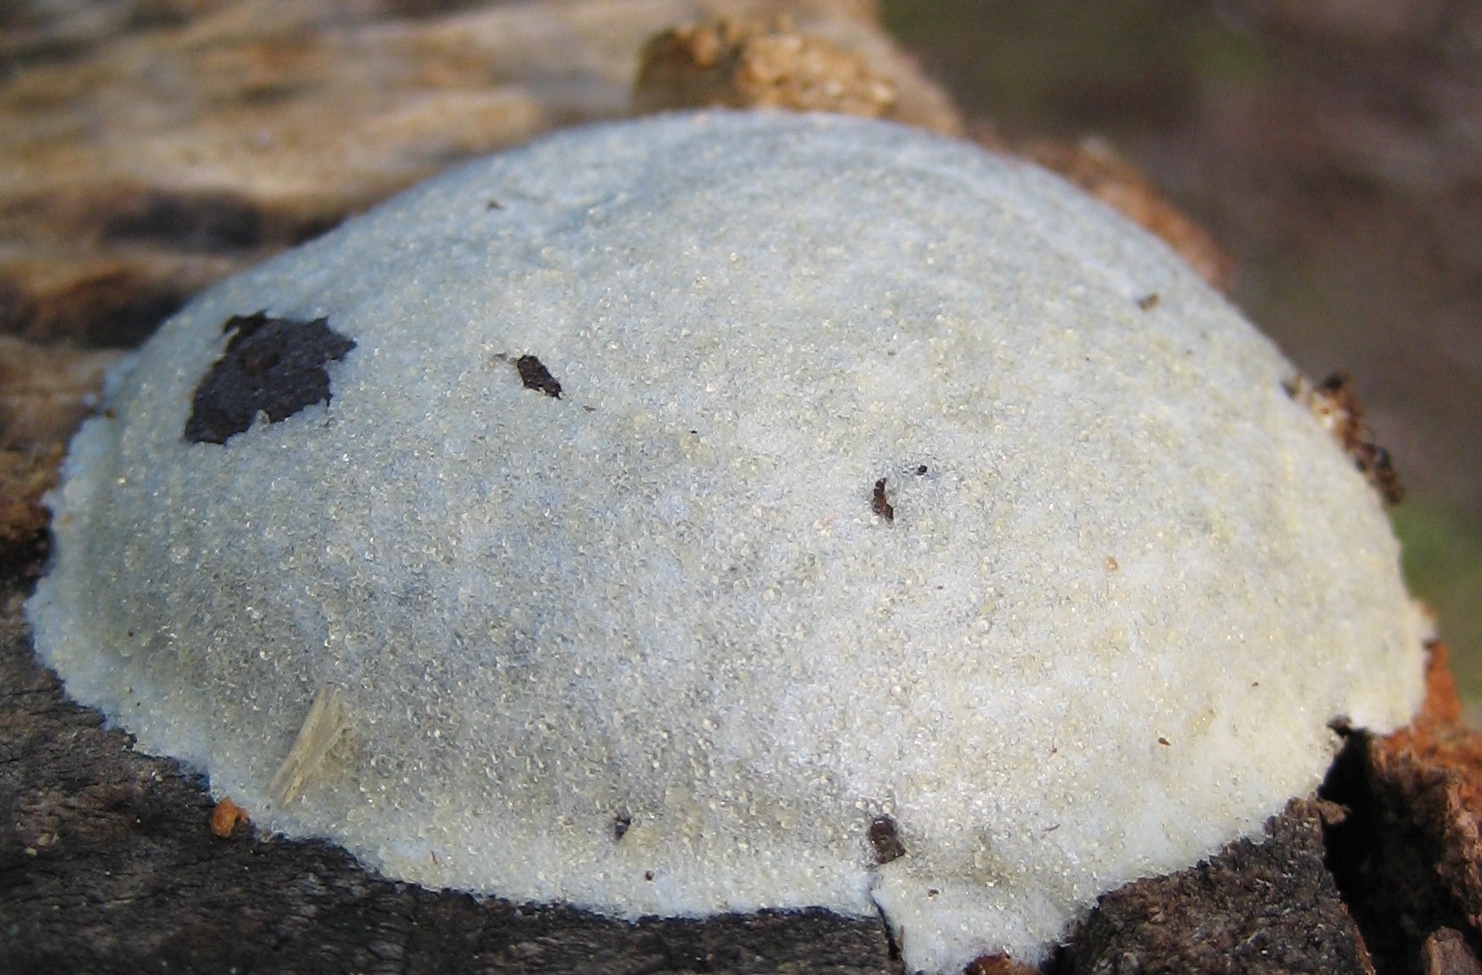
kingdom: Protozoa
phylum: Mycetozoa
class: Myxomycetes
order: Cribrariales
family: Tubiferaceae
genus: Reticularia
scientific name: Reticularia lycoperdon
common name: skinnende støvpude
